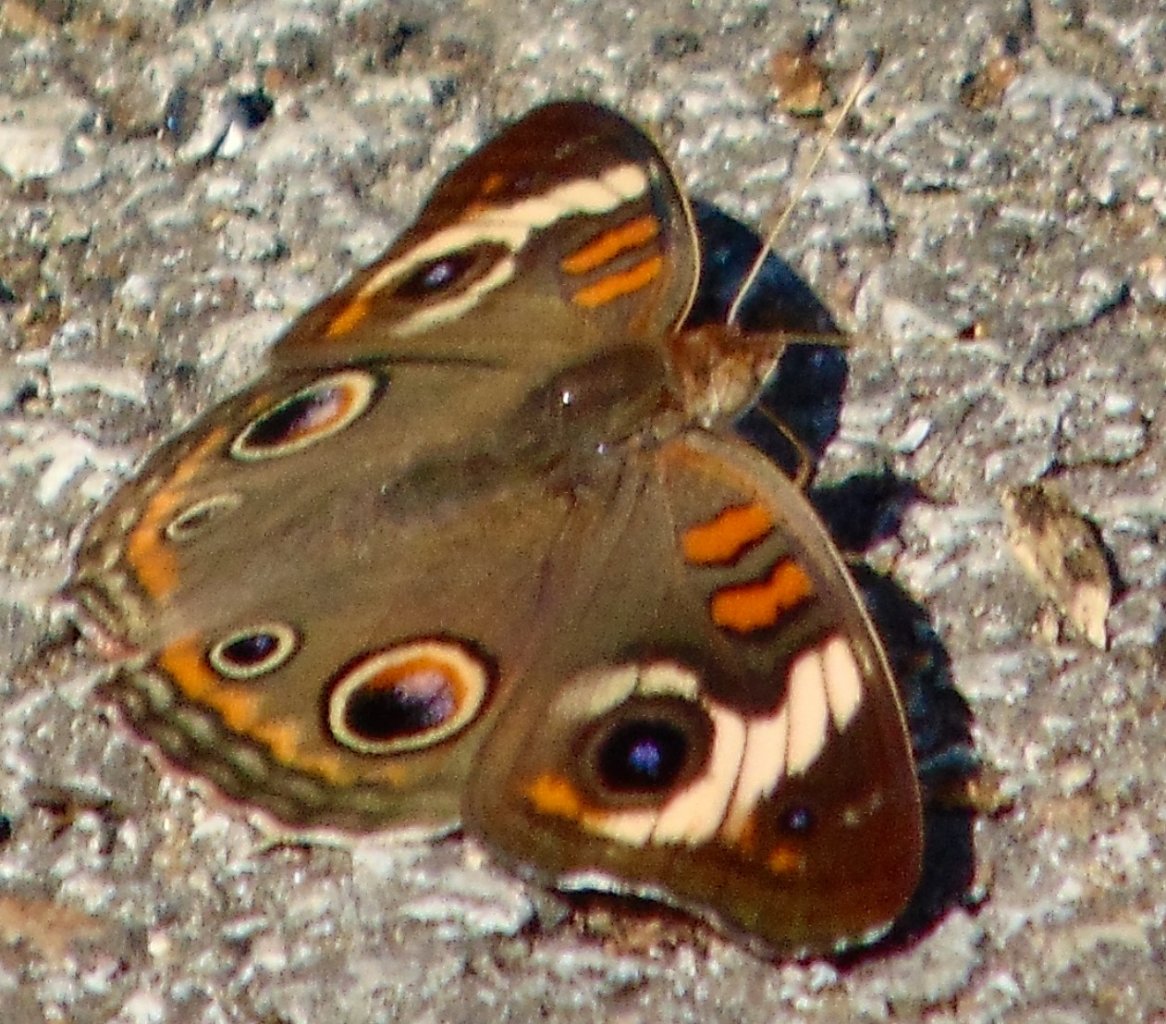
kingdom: Animalia
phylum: Arthropoda
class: Insecta
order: Lepidoptera
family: Nymphalidae
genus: Junonia
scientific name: Junonia coenia
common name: Common Buckeye
